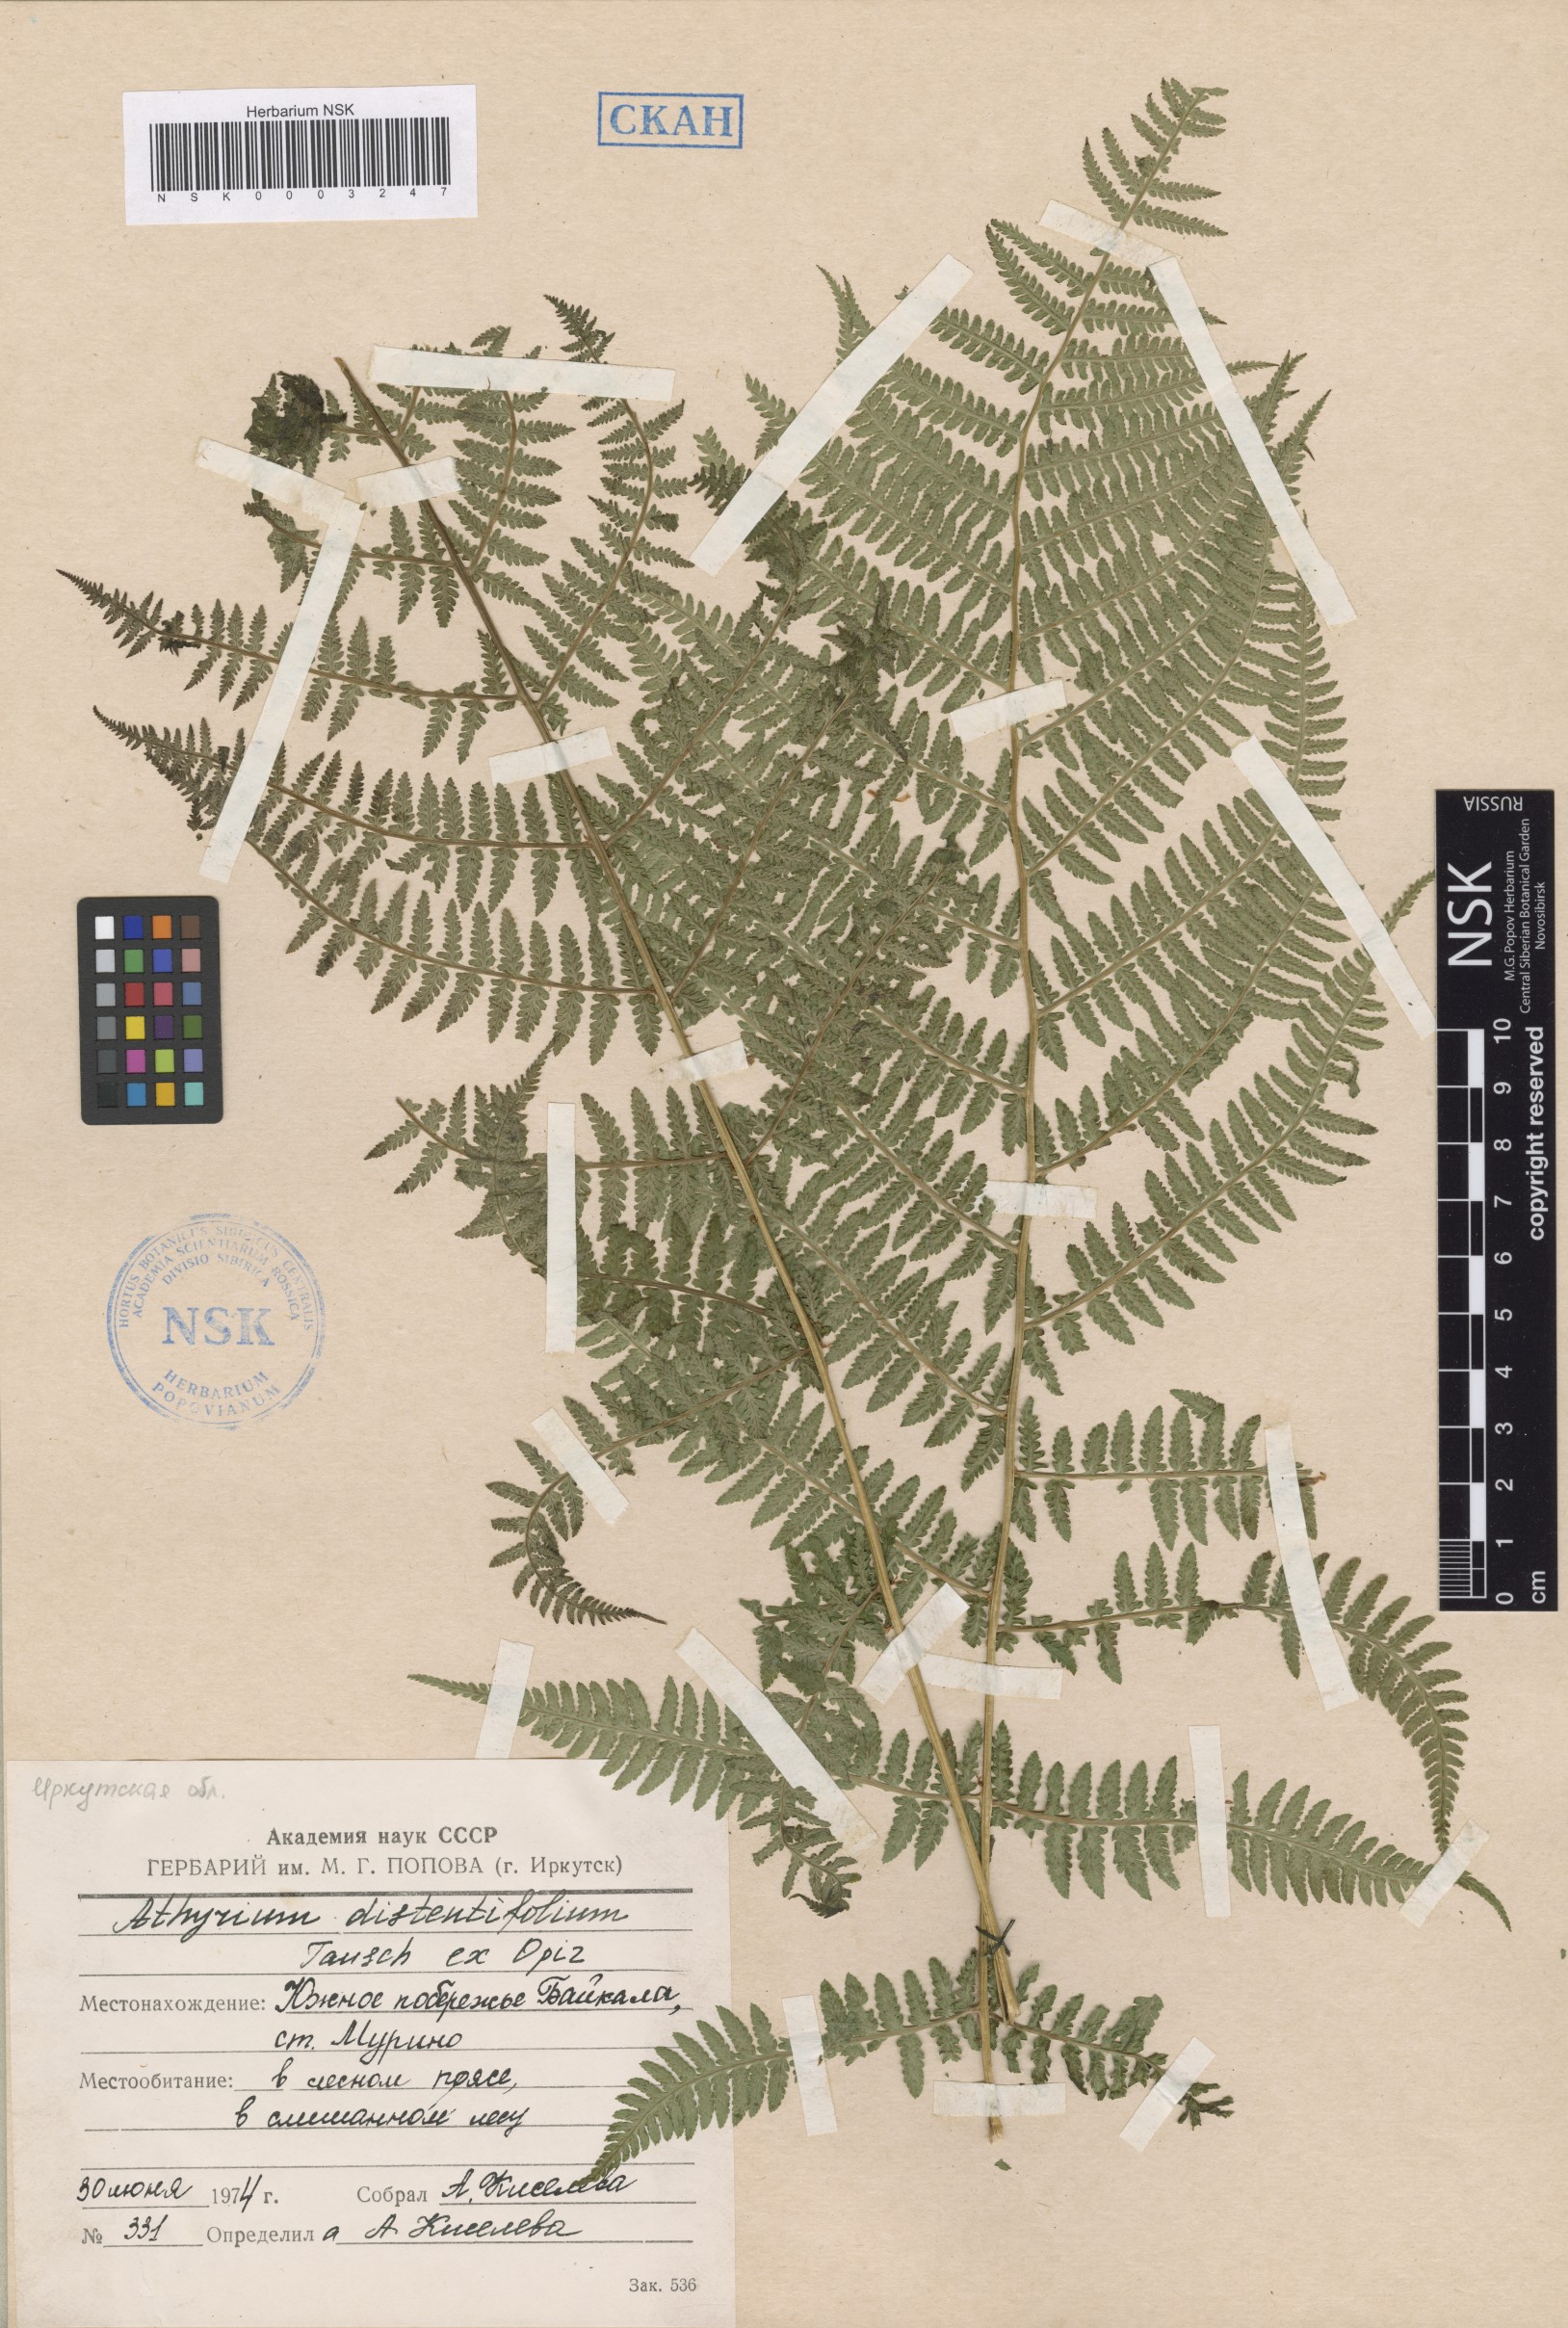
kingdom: Plantae
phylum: Tracheophyta
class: Polypodiopsida
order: Polypodiales
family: Athyriaceae
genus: Pseudathyrium
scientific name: Pseudathyrium alpestre
